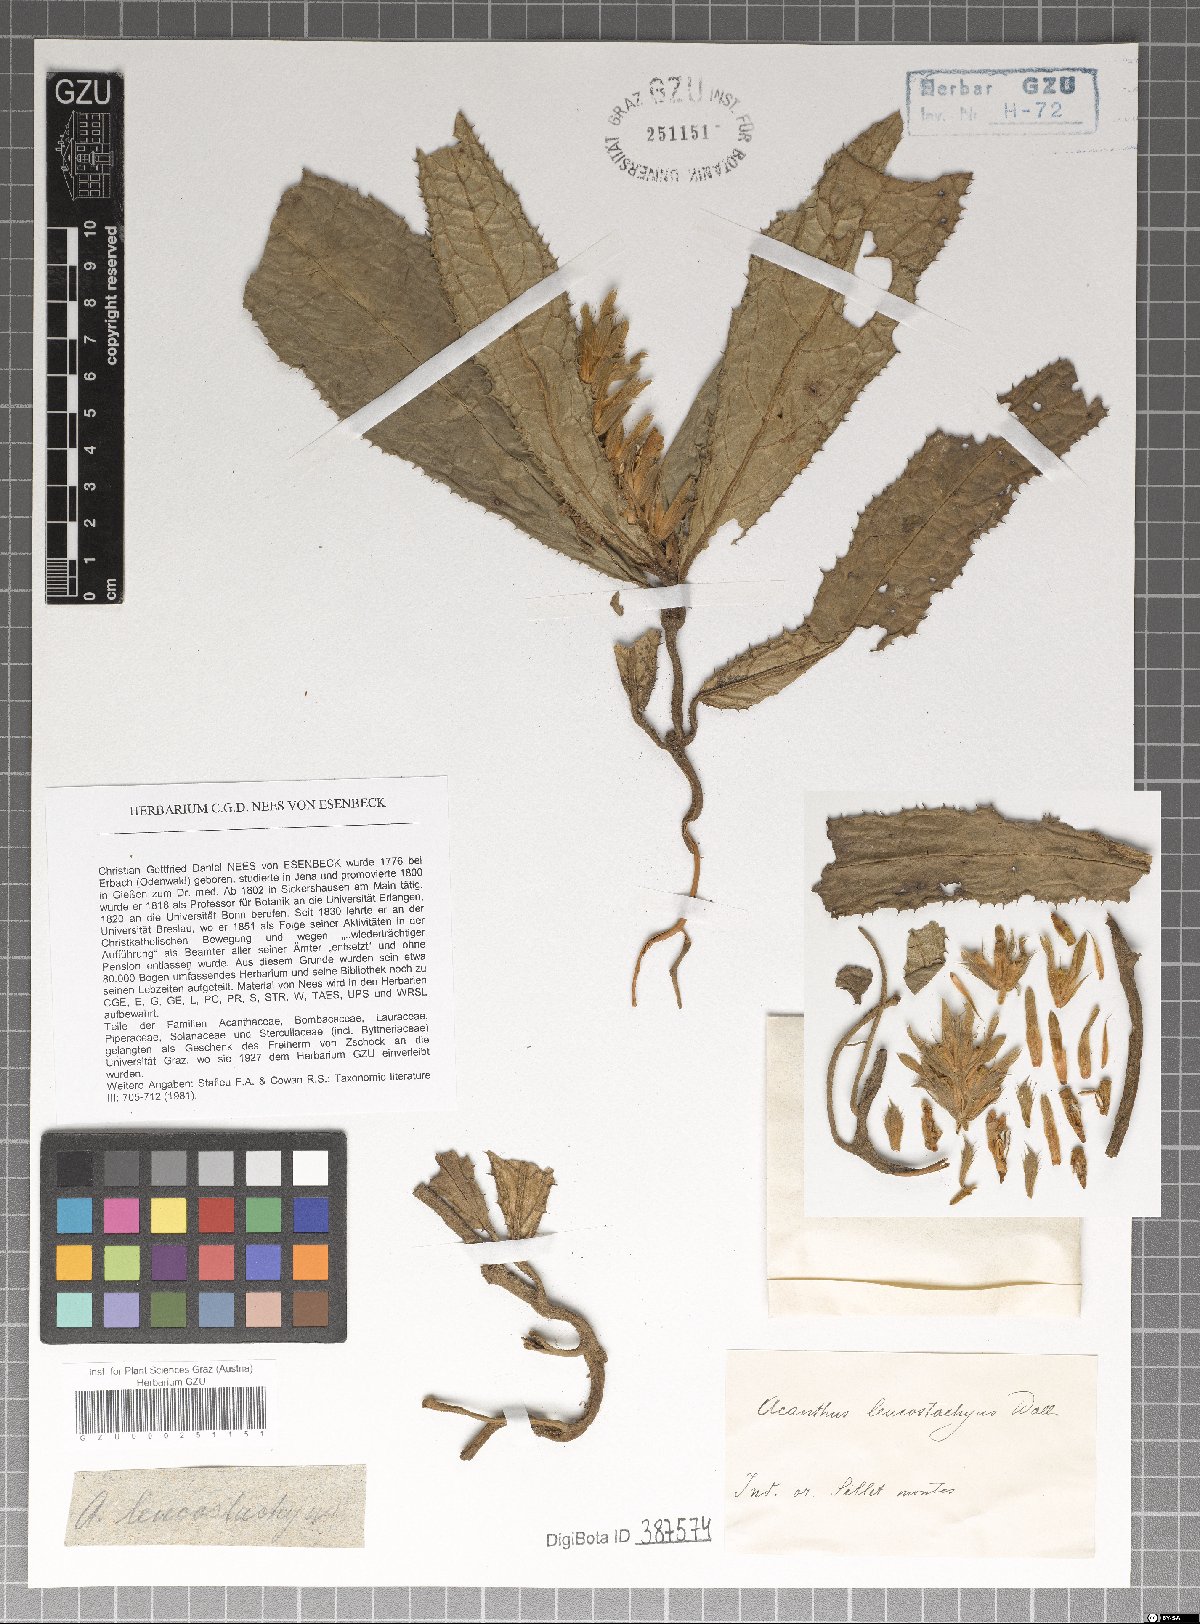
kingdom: Plantae
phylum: Tracheophyta
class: Magnoliopsida
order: Lamiales
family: Acanthaceae
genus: Acanthus
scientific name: Acanthus leucostachyus
